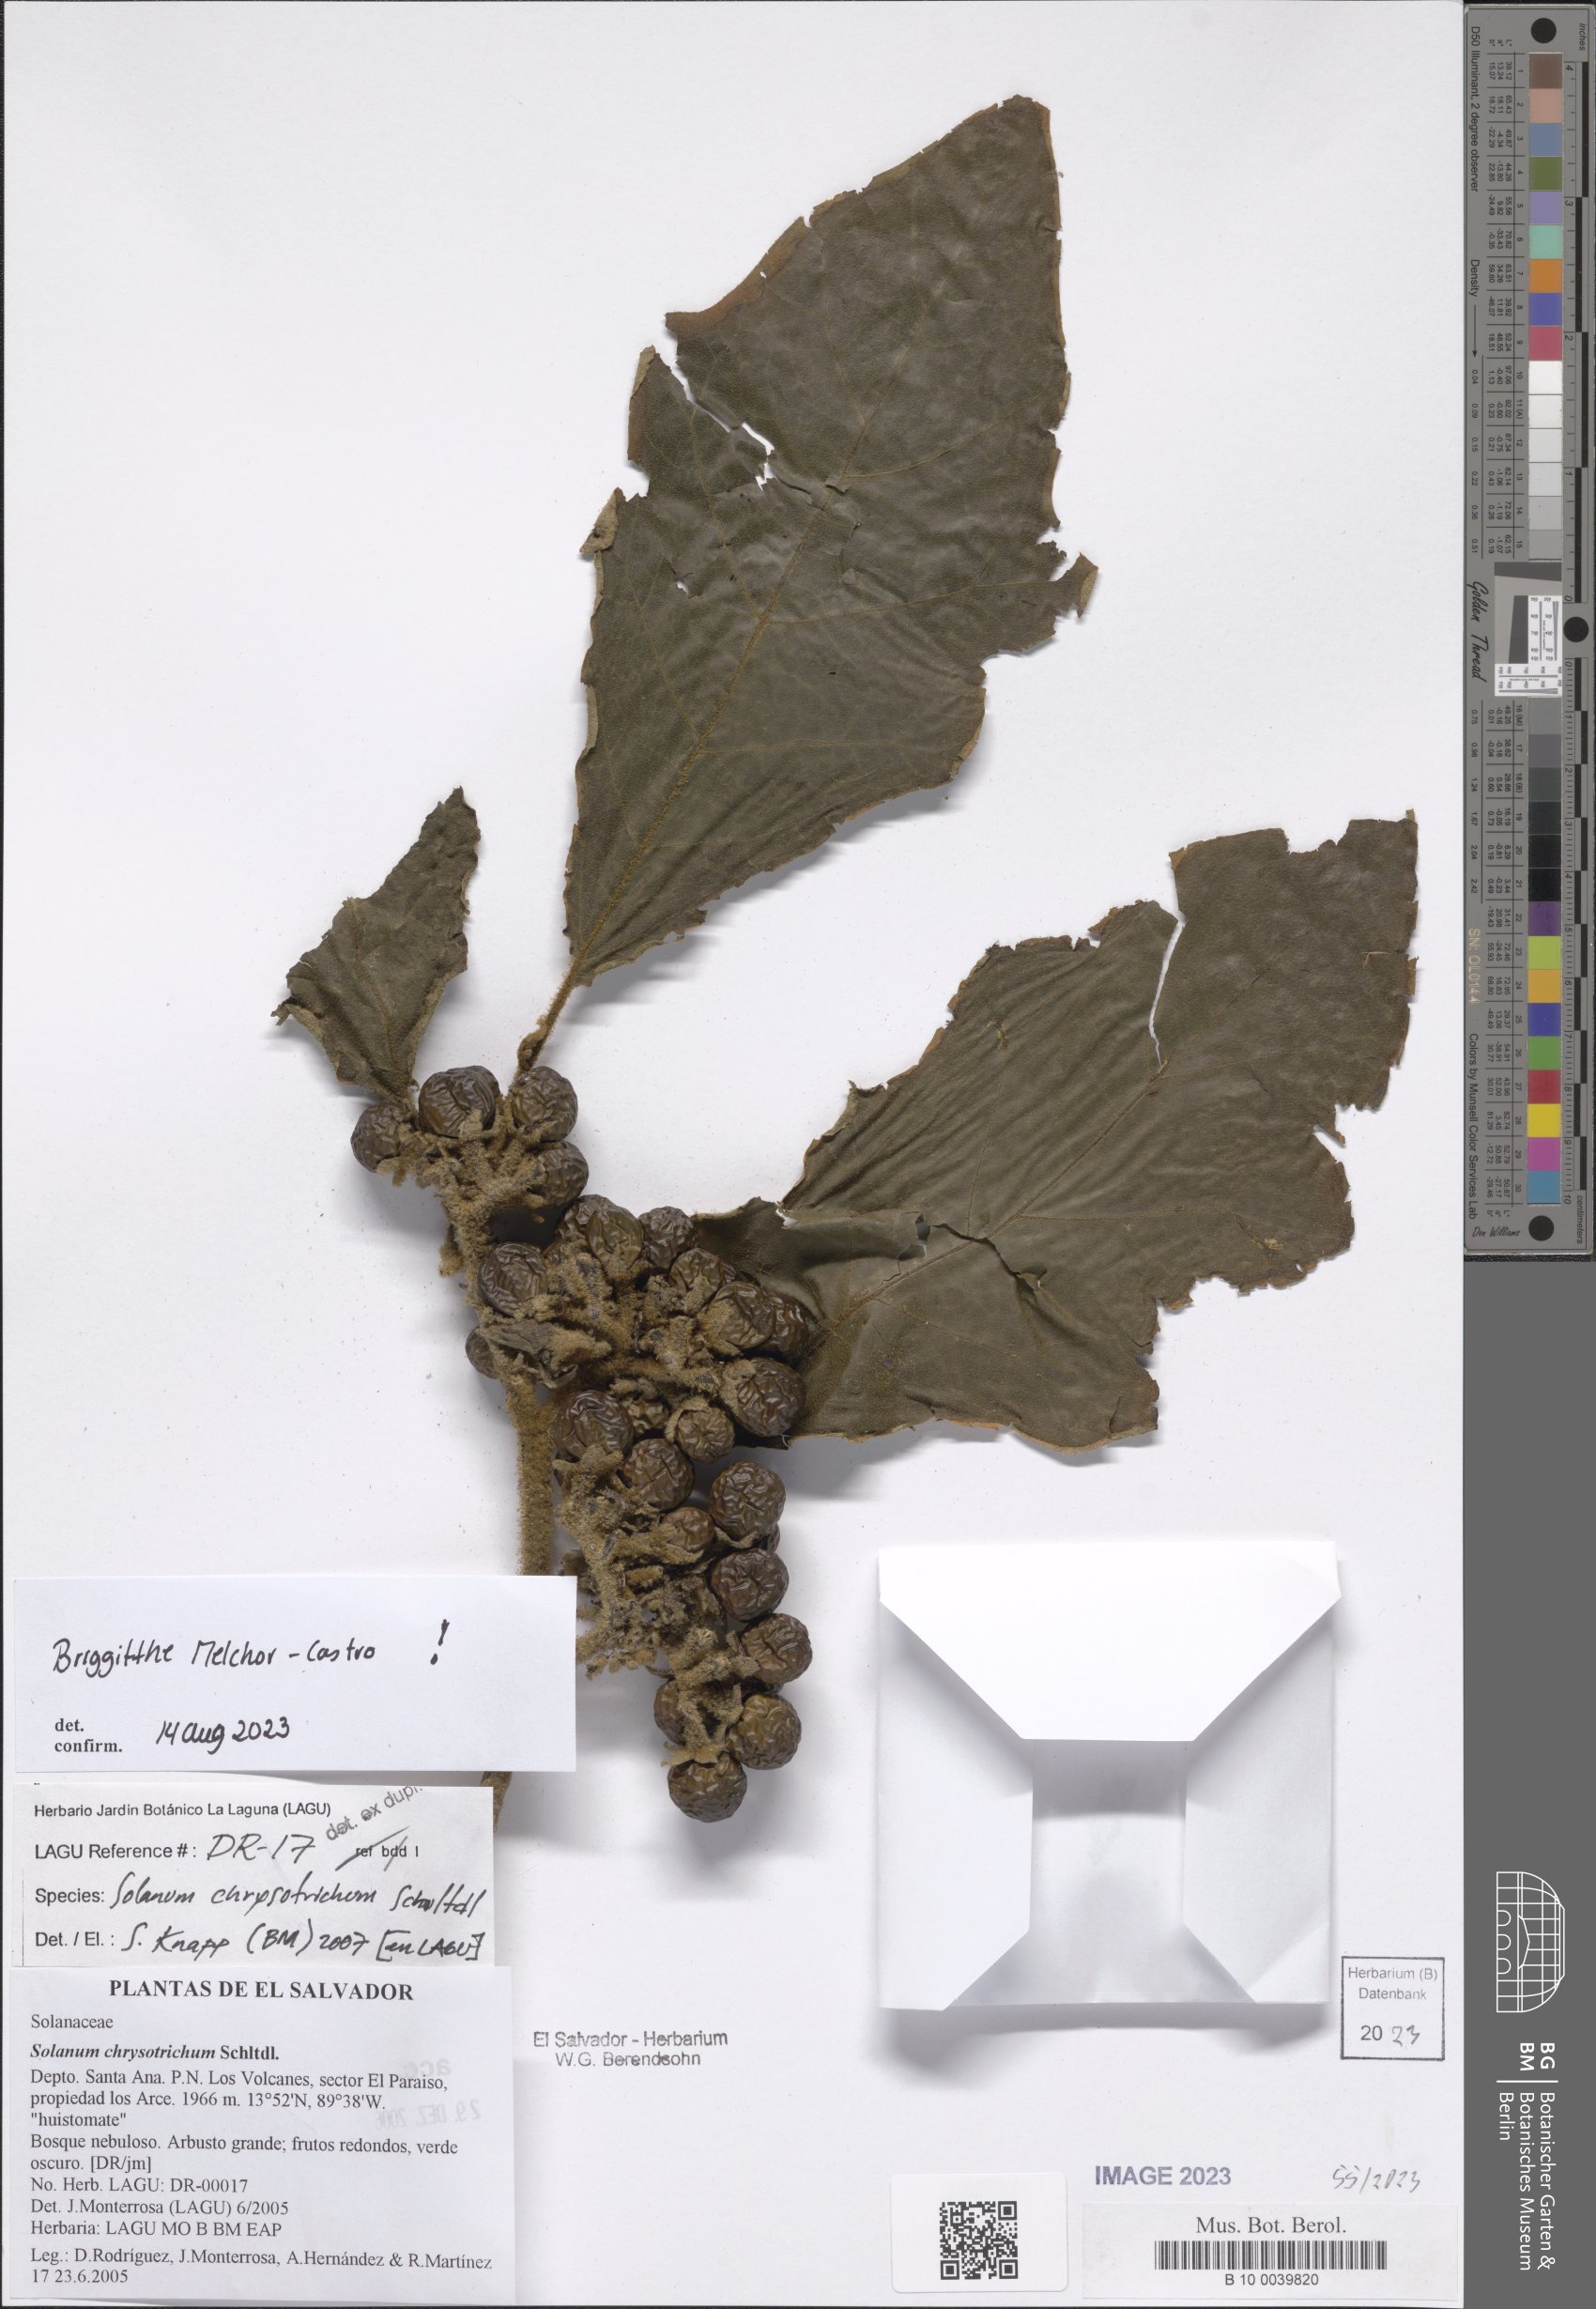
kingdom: Plantae
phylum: Tracheophyta
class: Magnoliopsida
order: Solanales
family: Solanaceae
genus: Solanum
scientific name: Solanum chrysotrichum
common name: Nightshade
